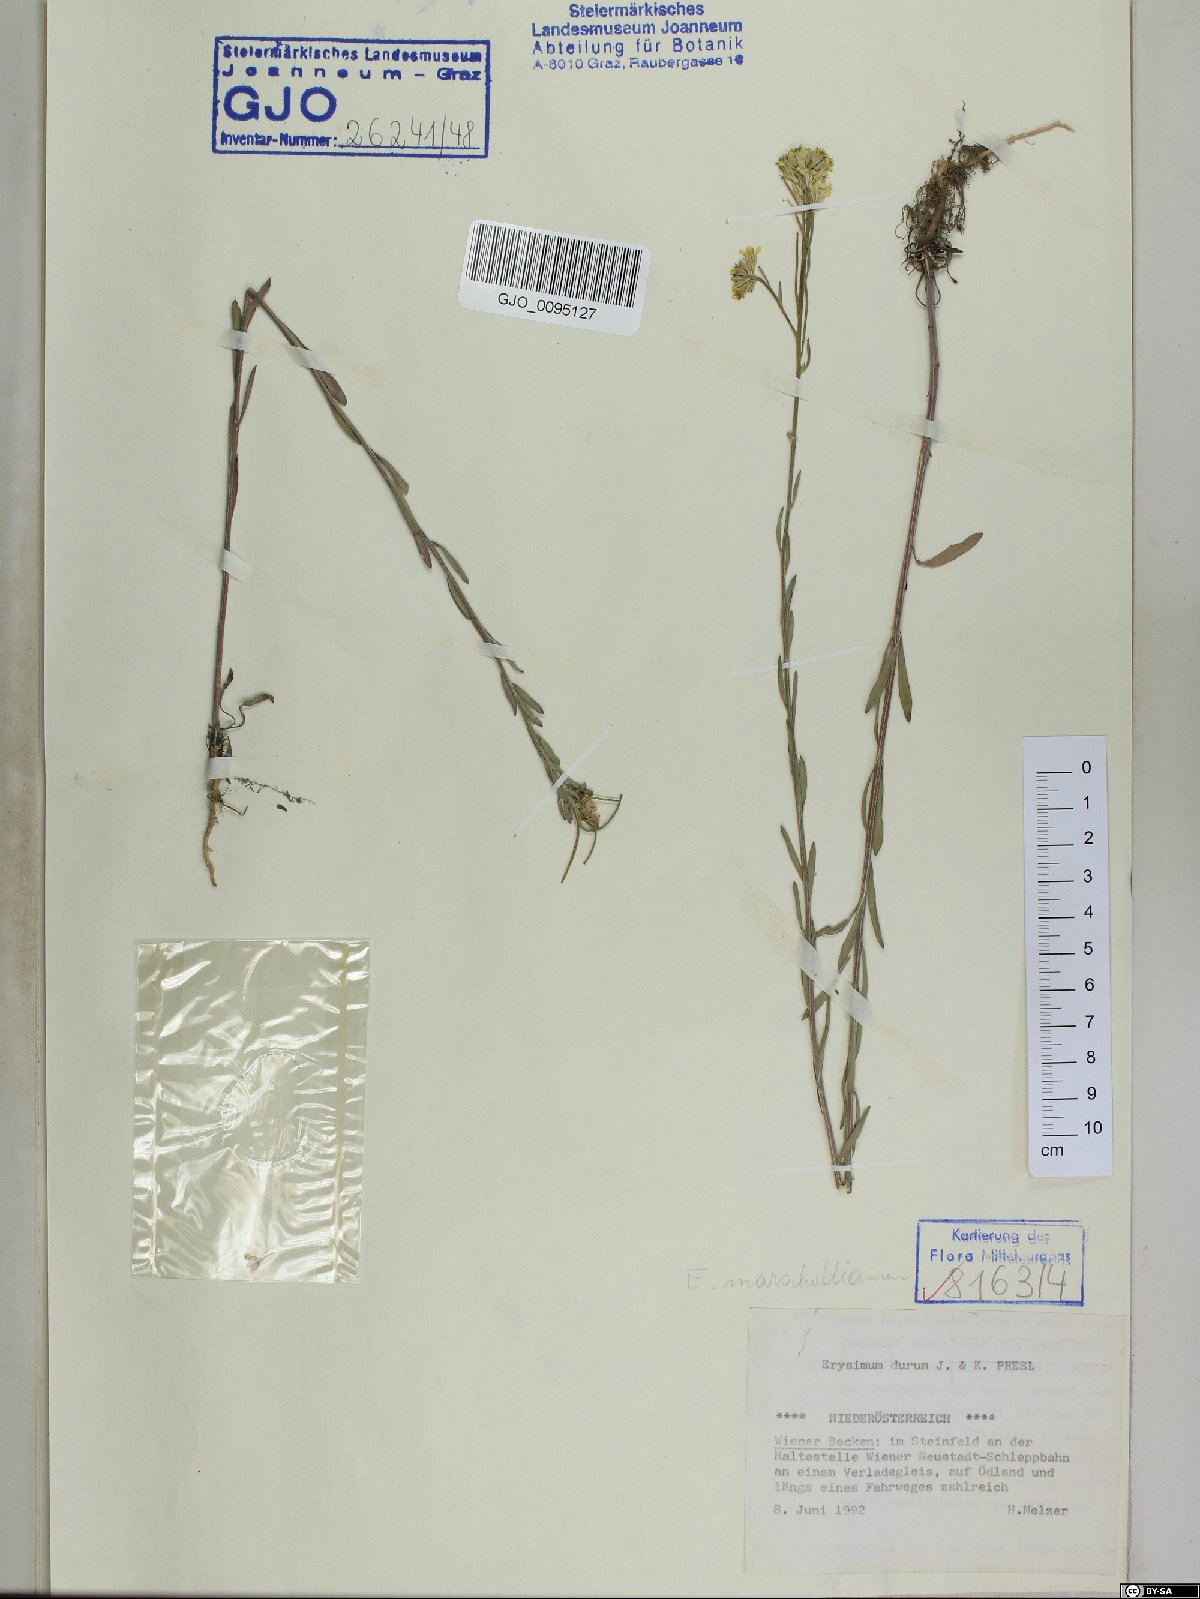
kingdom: Plantae
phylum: Tracheophyta
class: Magnoliopsida
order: Brassicales
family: Brassicaceae
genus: Erysimum
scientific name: Erysimum marschallianum
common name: Hard wallflower
